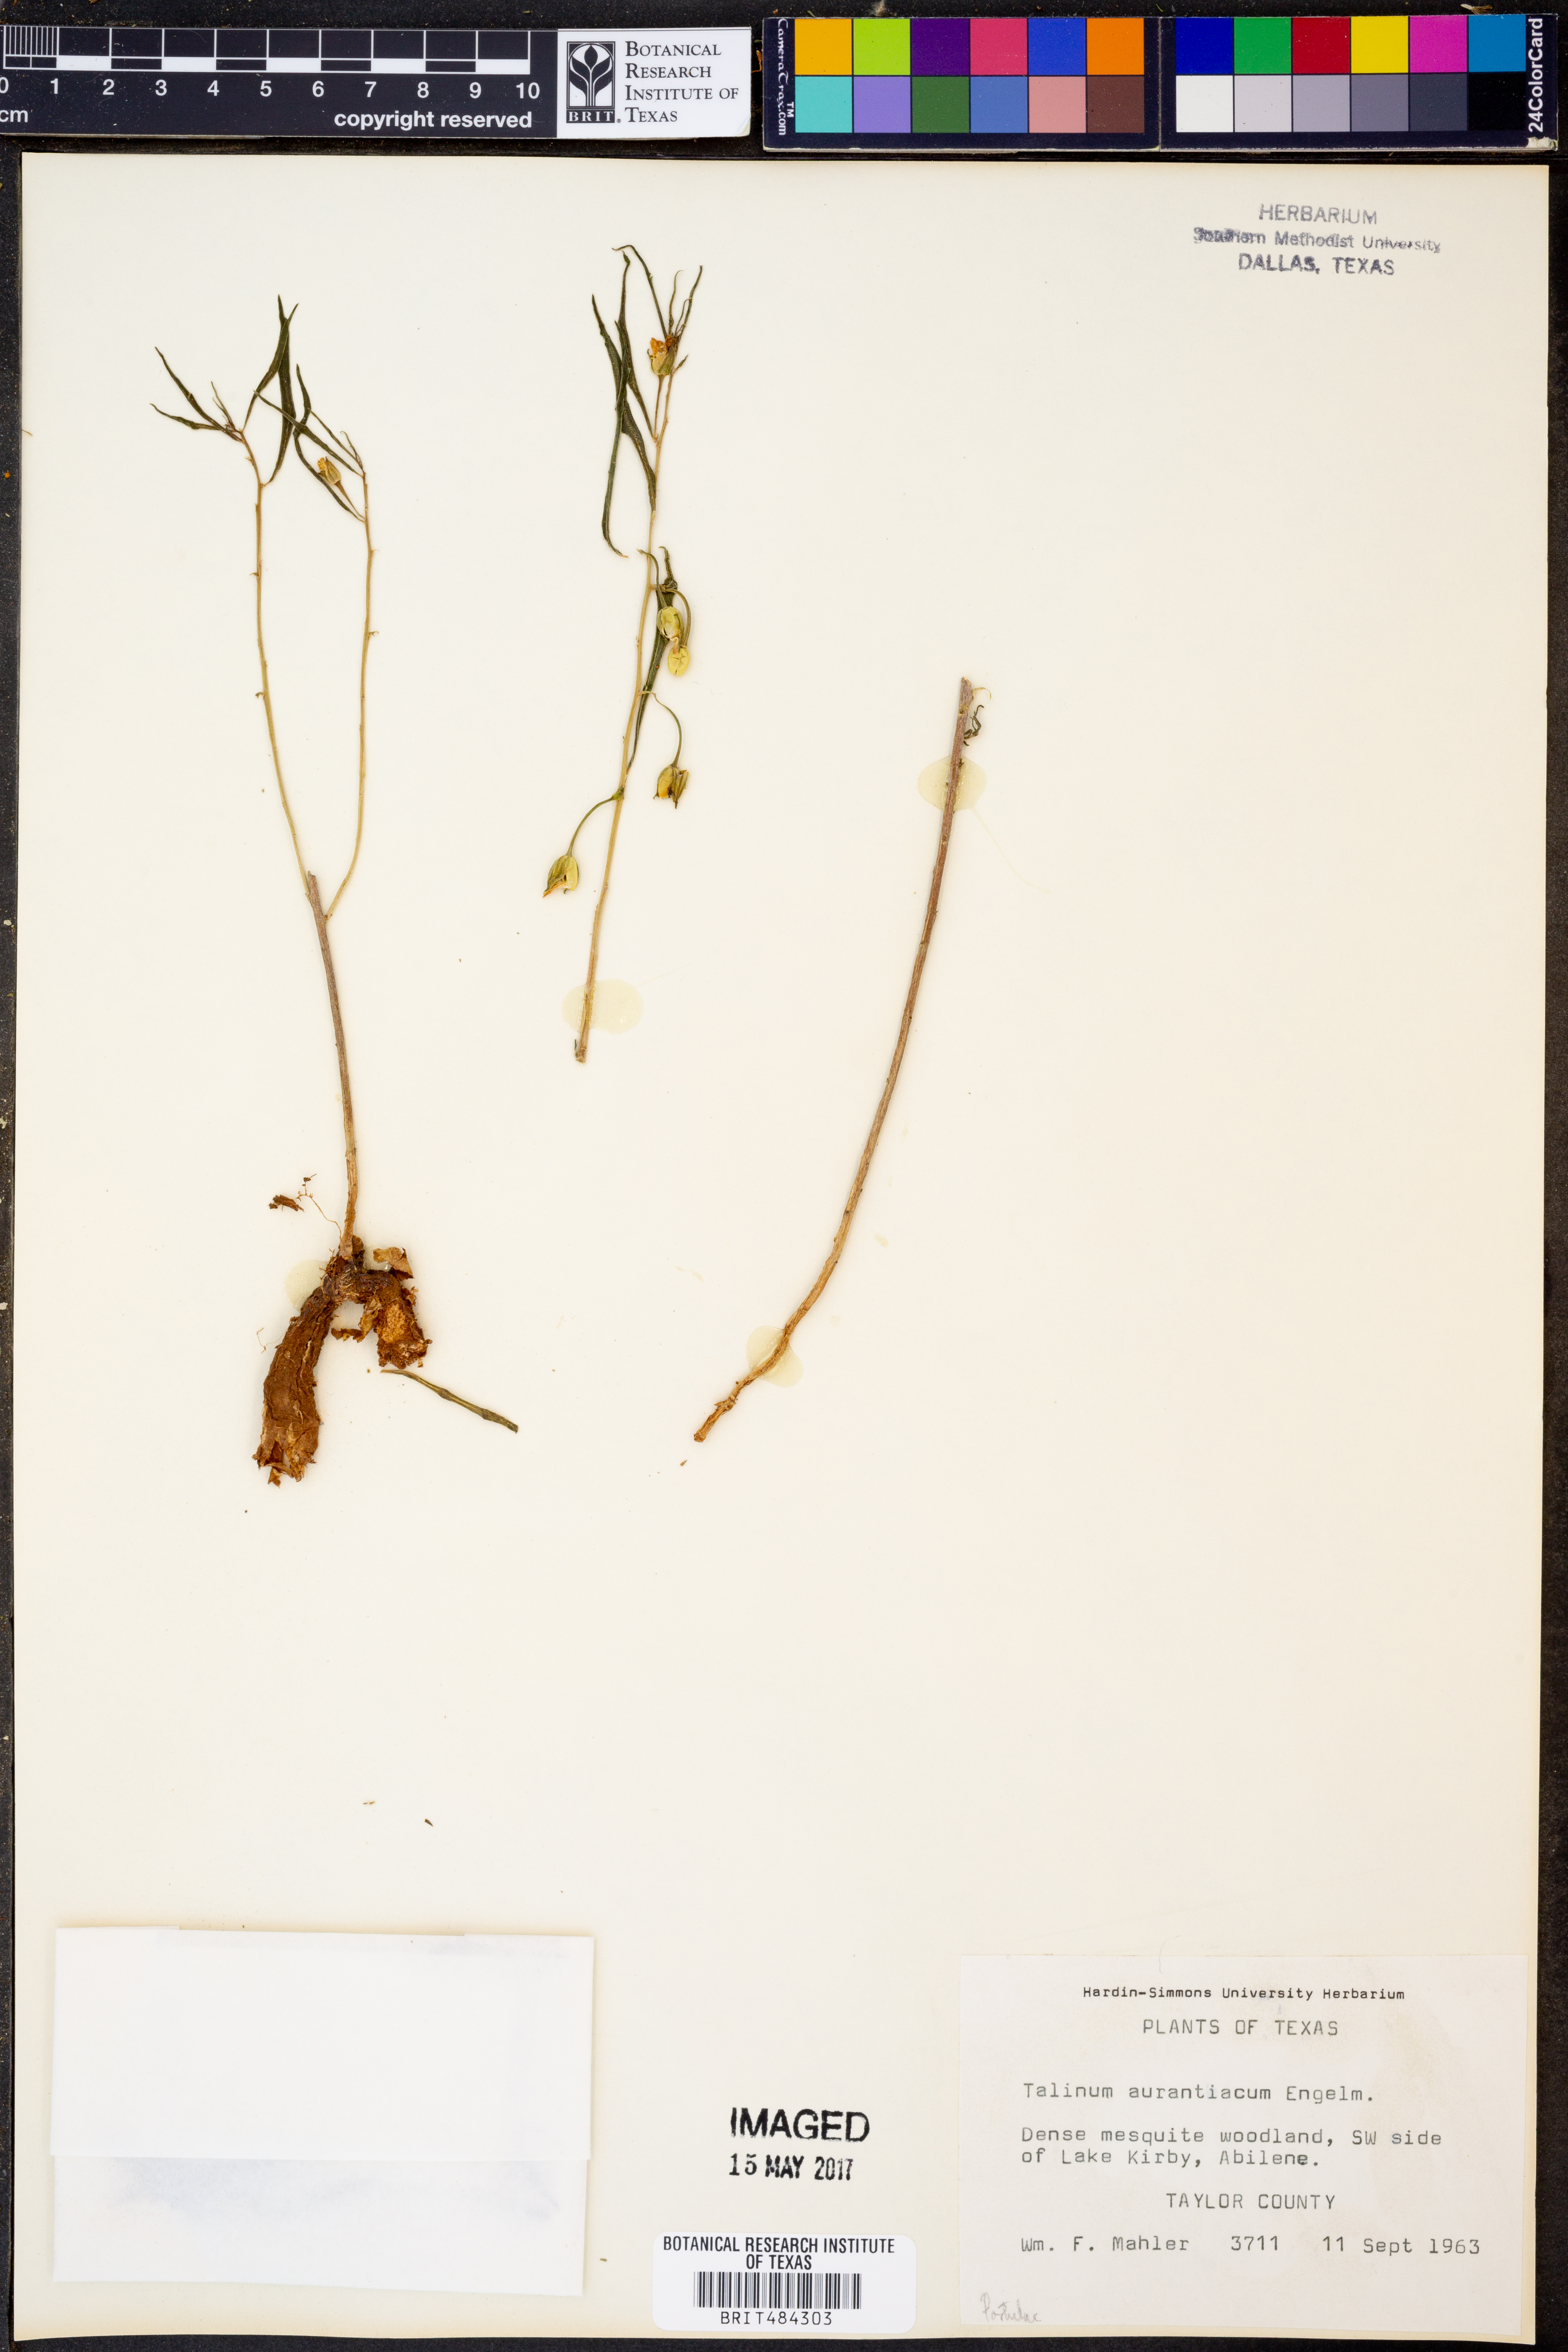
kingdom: Plantae
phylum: Tracheophyta
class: Magnoliopsida
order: Caryophyllales
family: Montiaceae
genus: Phemeranthus
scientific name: Phemeranthus aurantiacus
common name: Orange fameflower
